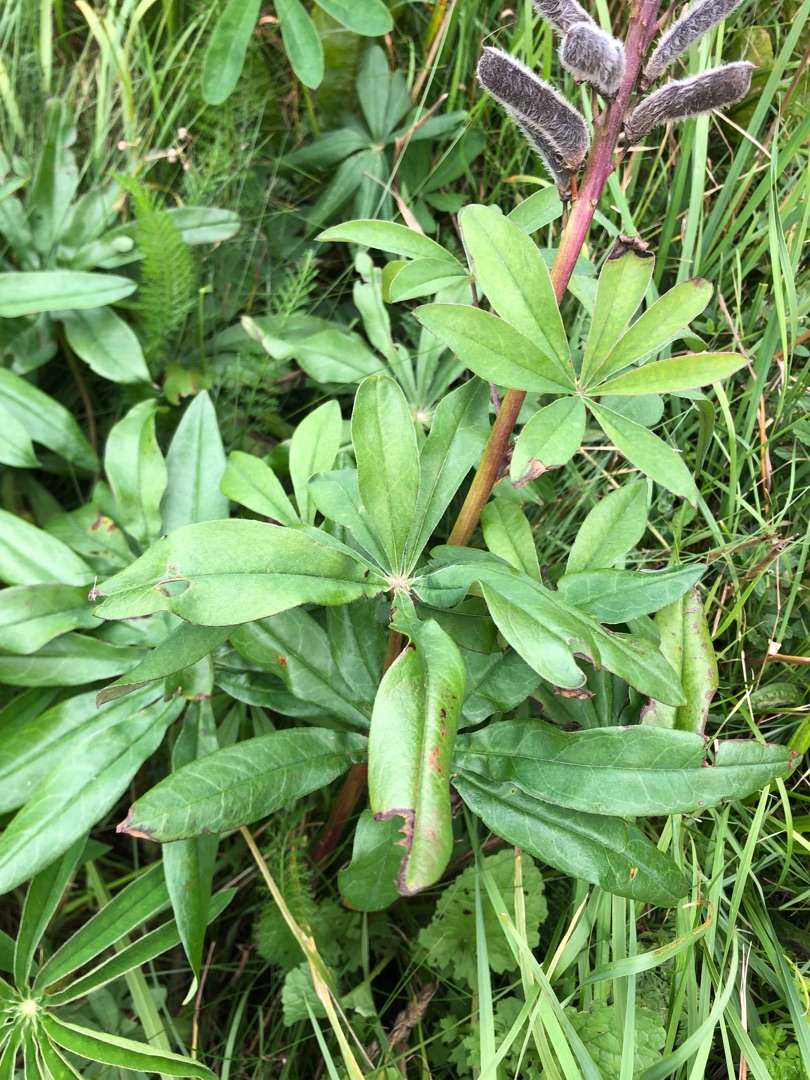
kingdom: Plantae
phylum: Tracheophyta
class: Magnoliopsida
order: Fabales
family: Fabaceae
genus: Lupinus
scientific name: Lupinus polyphyllus
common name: Mangebladet lupin
